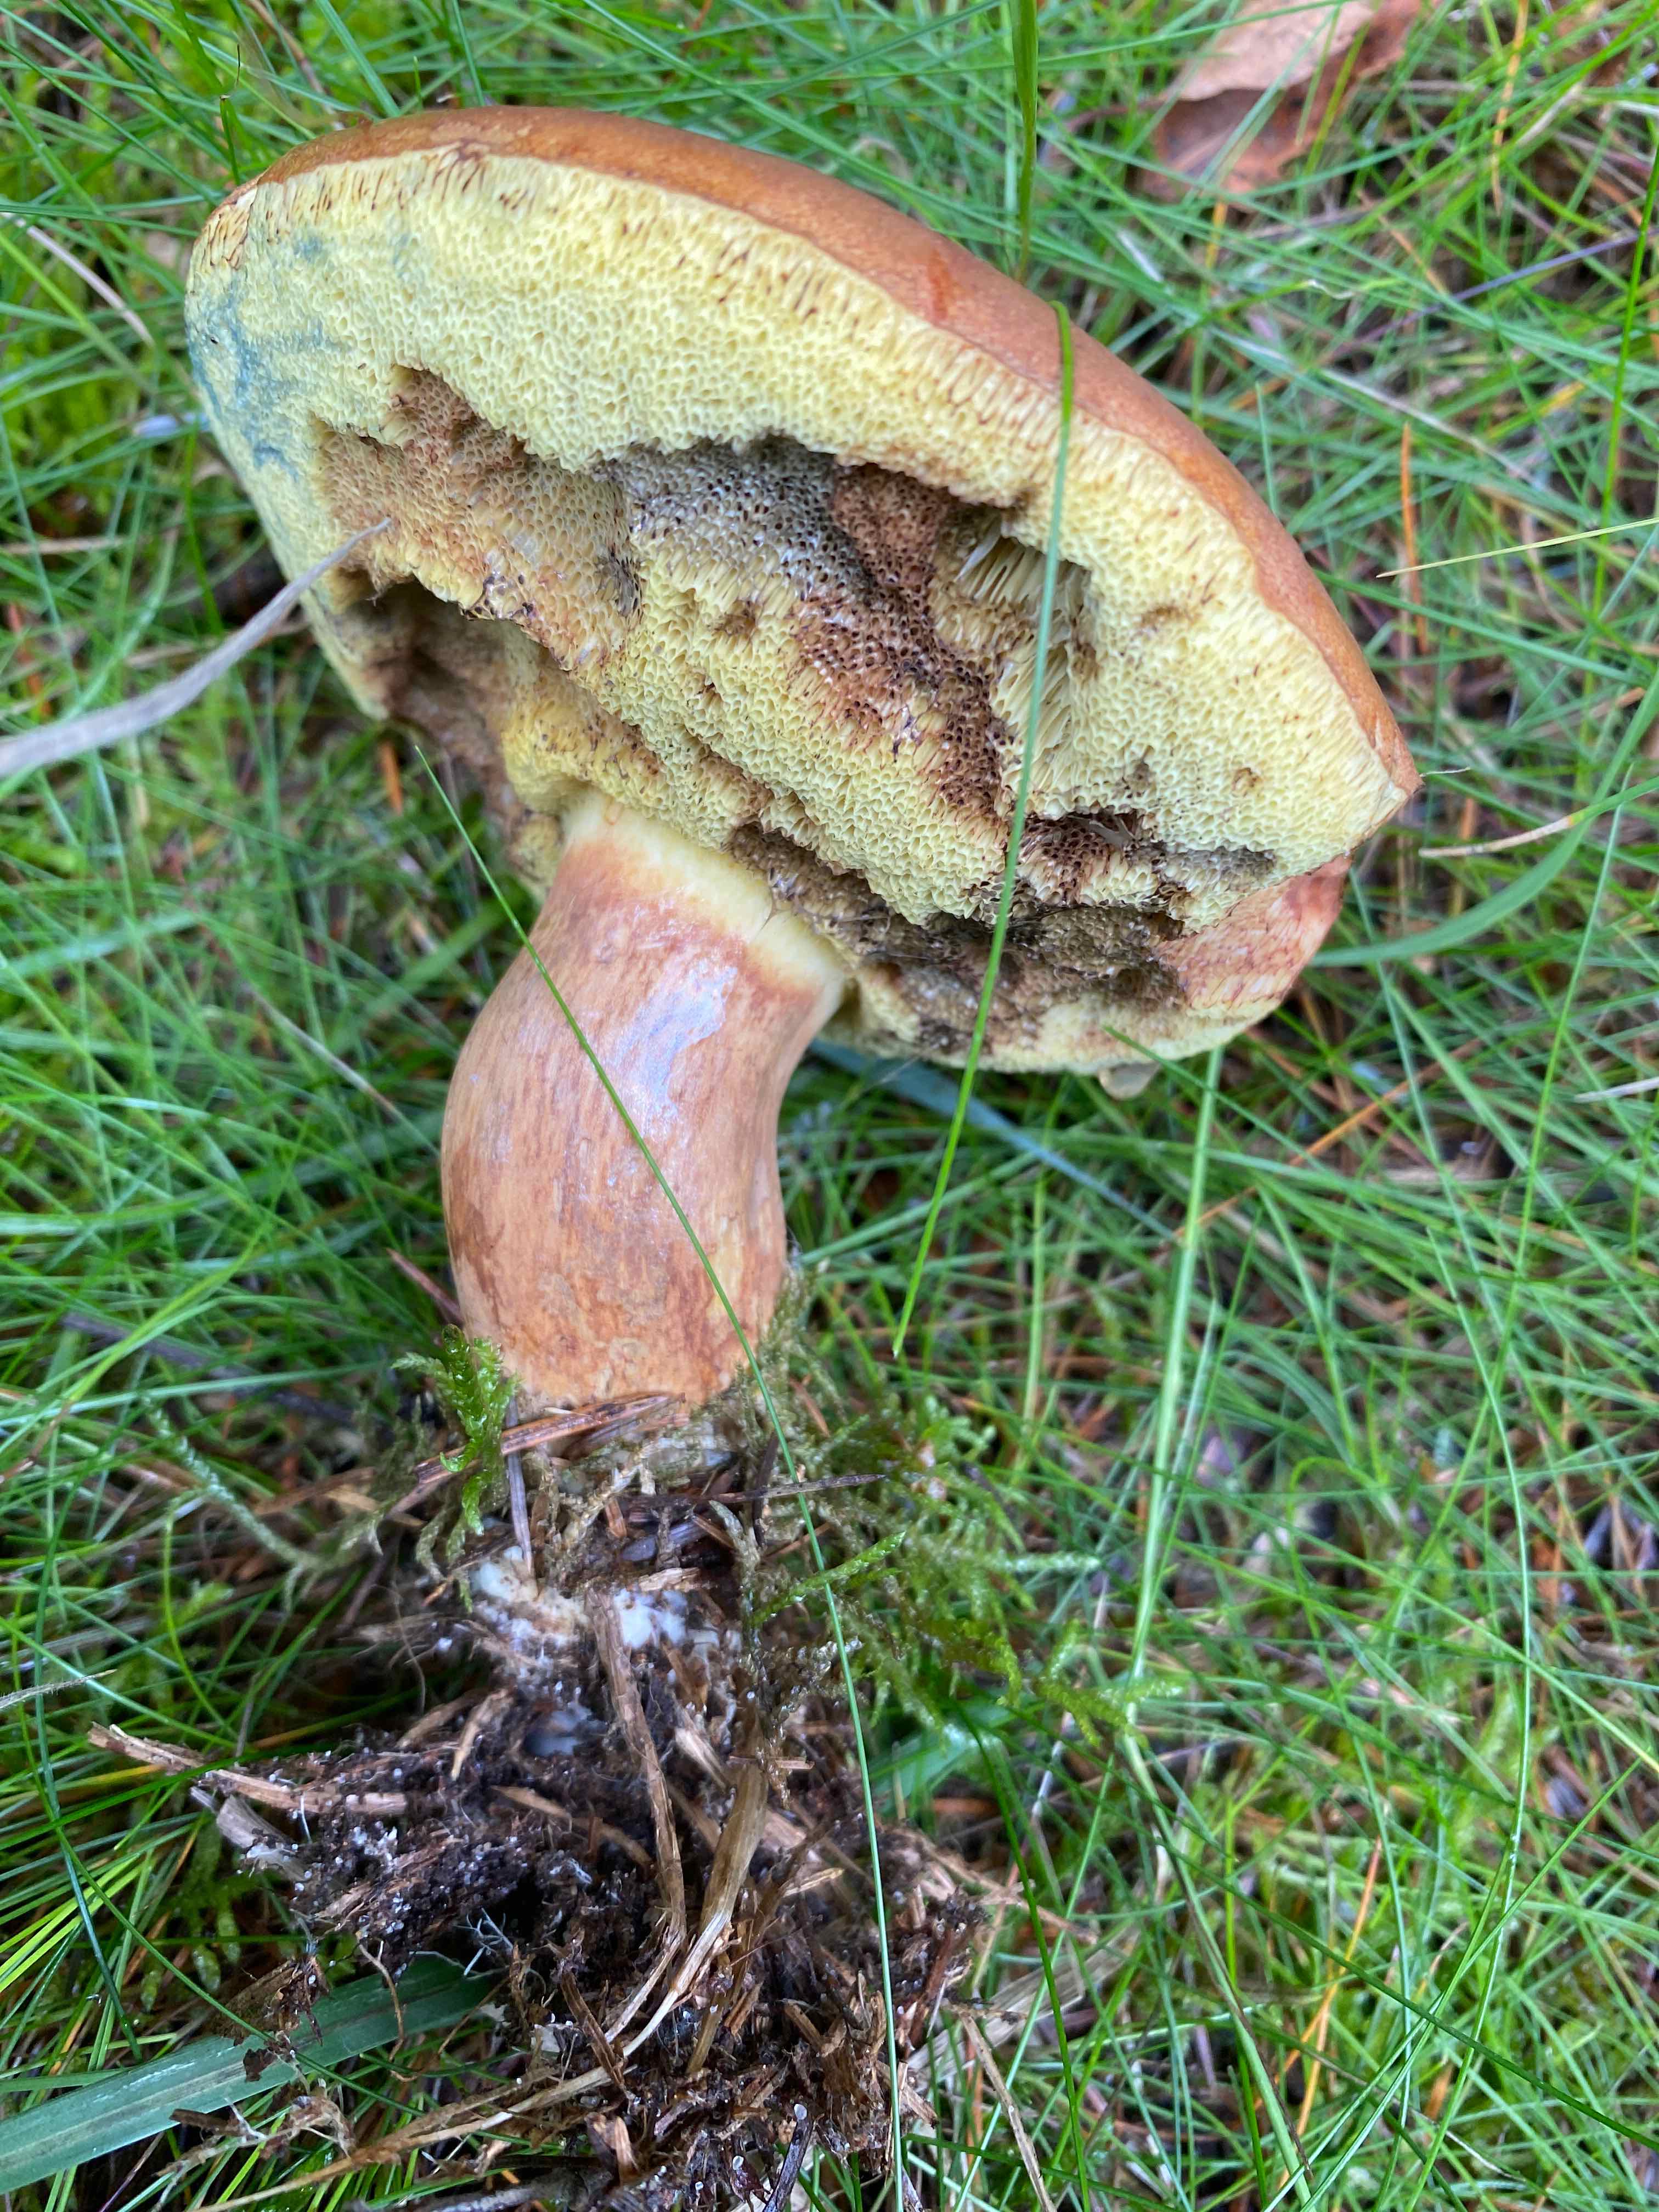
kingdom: Fungi
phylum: Basidiomycota
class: Agaricomycetes
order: Boletales
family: Boletaceae
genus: Imleria
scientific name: Imleria badia
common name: brunstokket rørhat
